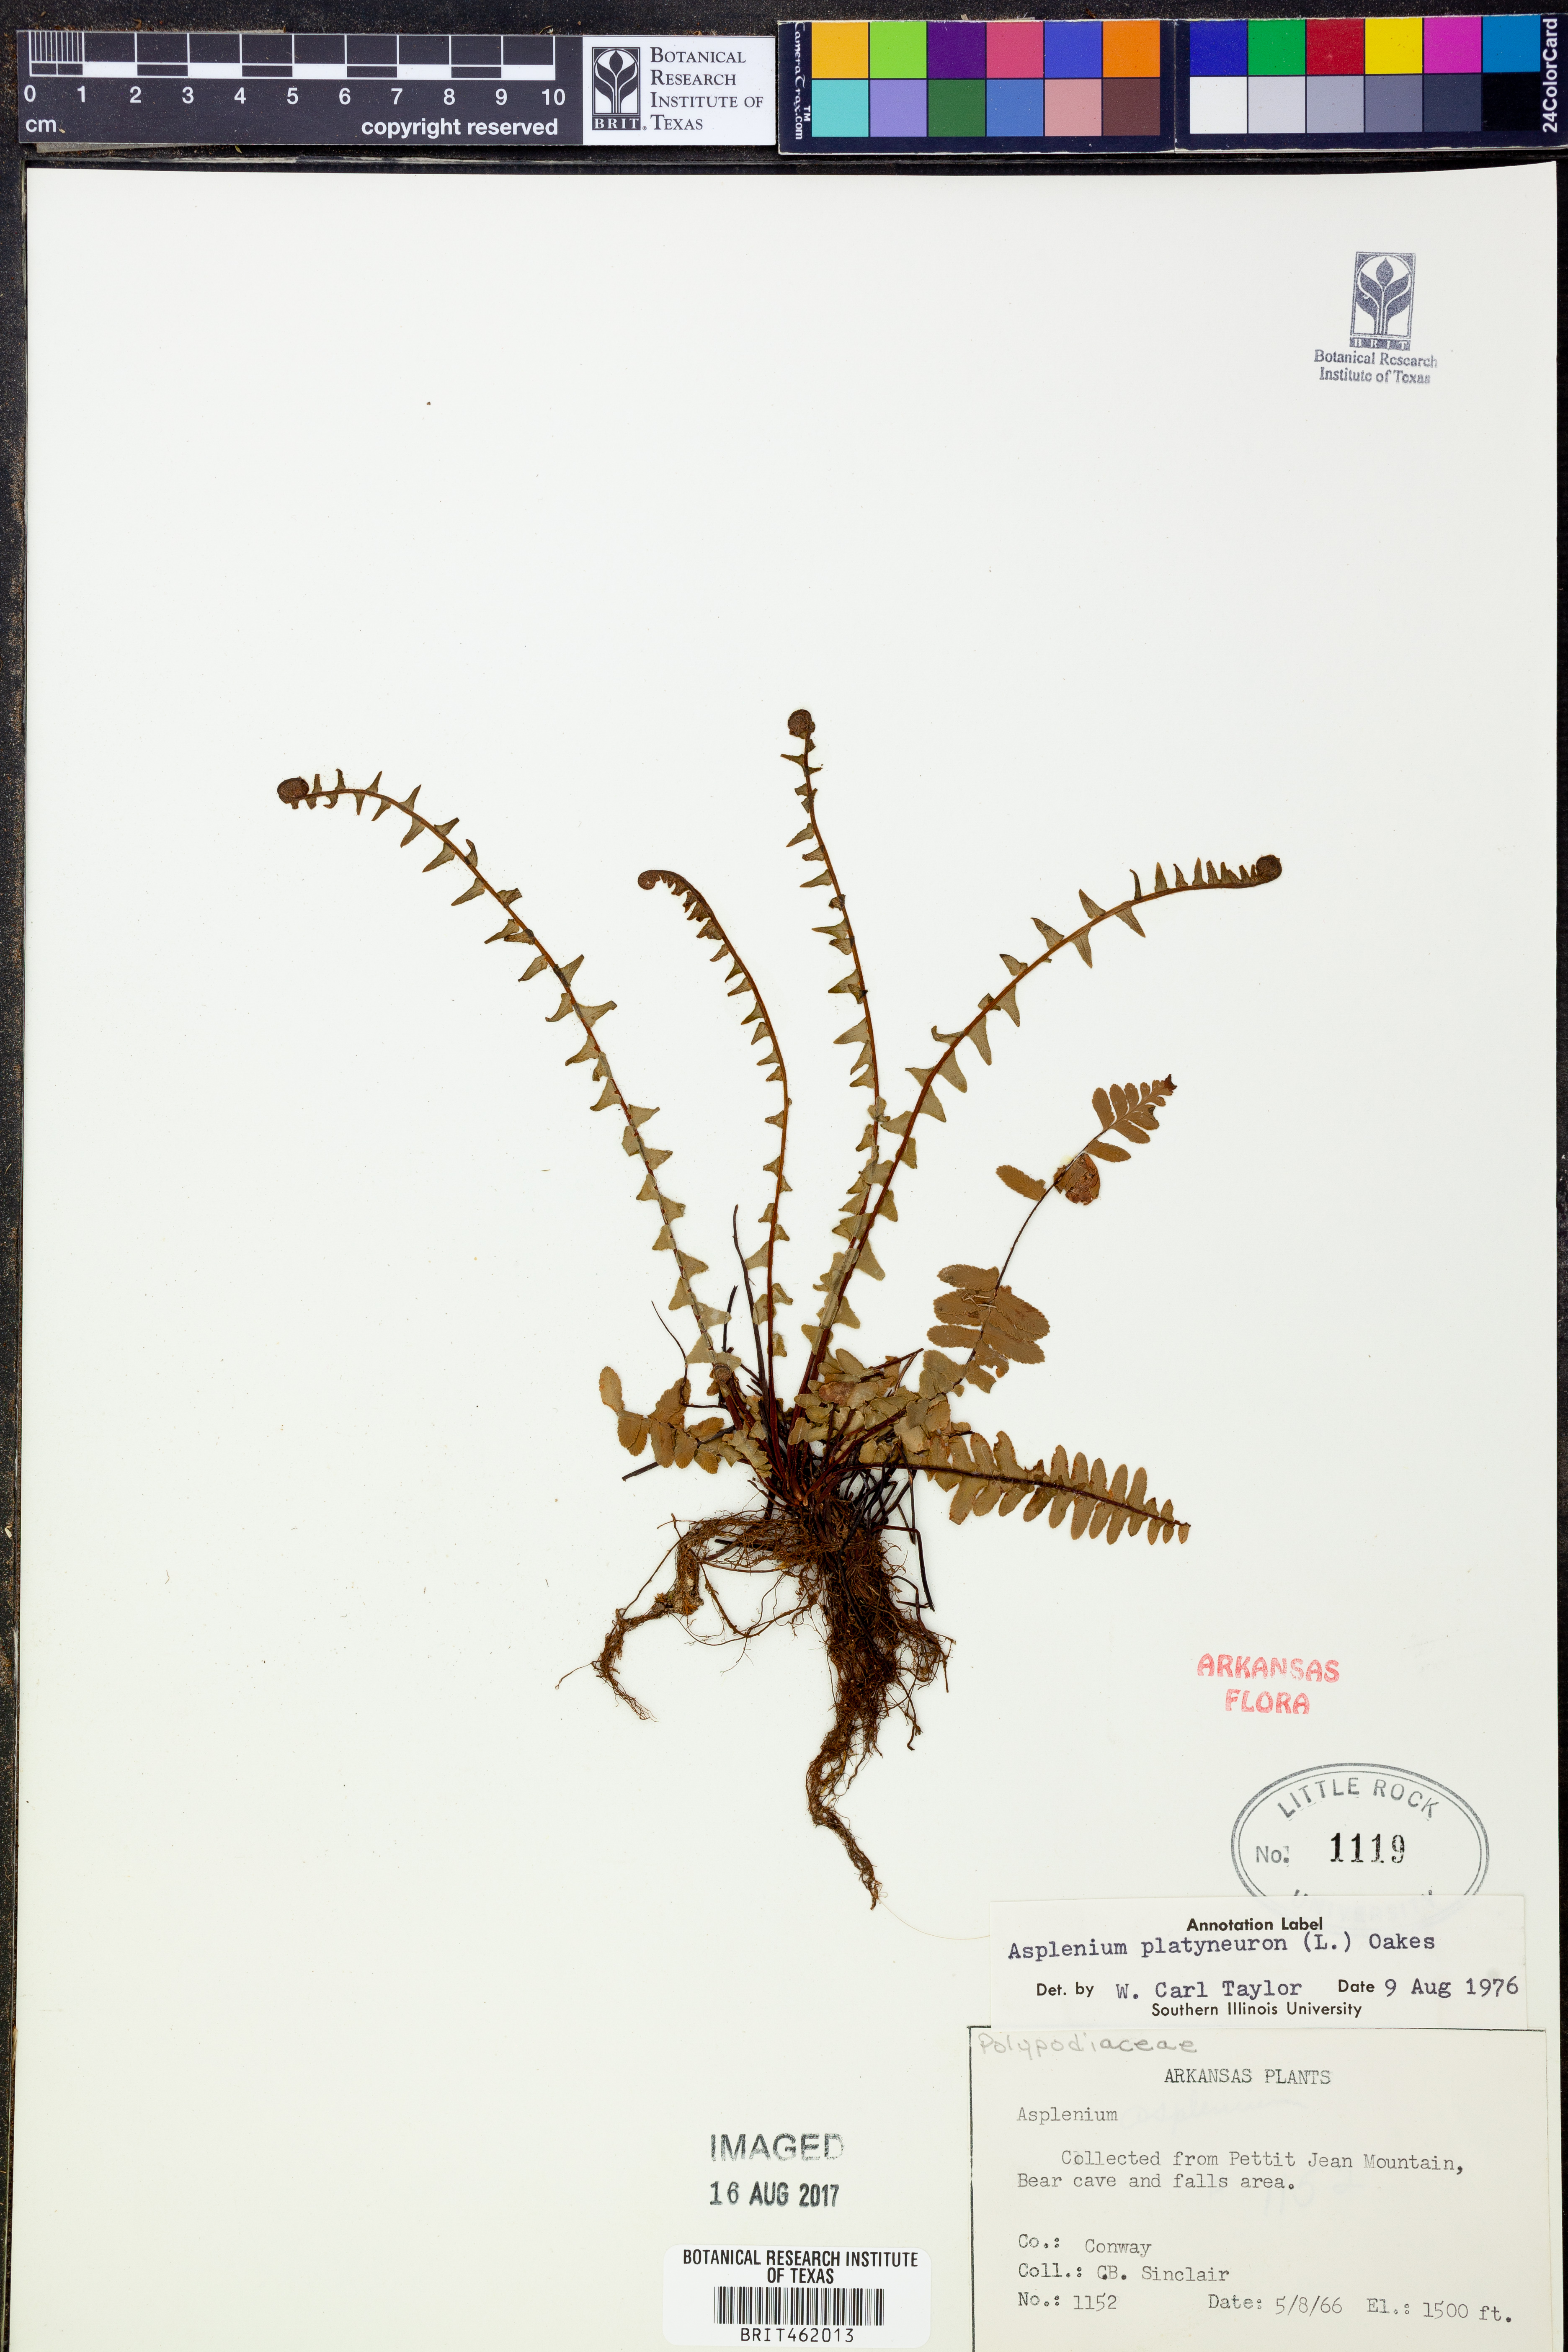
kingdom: Plantae
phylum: Tracheophyta
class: Polypodiopsida
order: Polypodiales
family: Aspleniaceae
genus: Asplenium
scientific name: Asplenium platyneuron
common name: Ebony spleenwort
